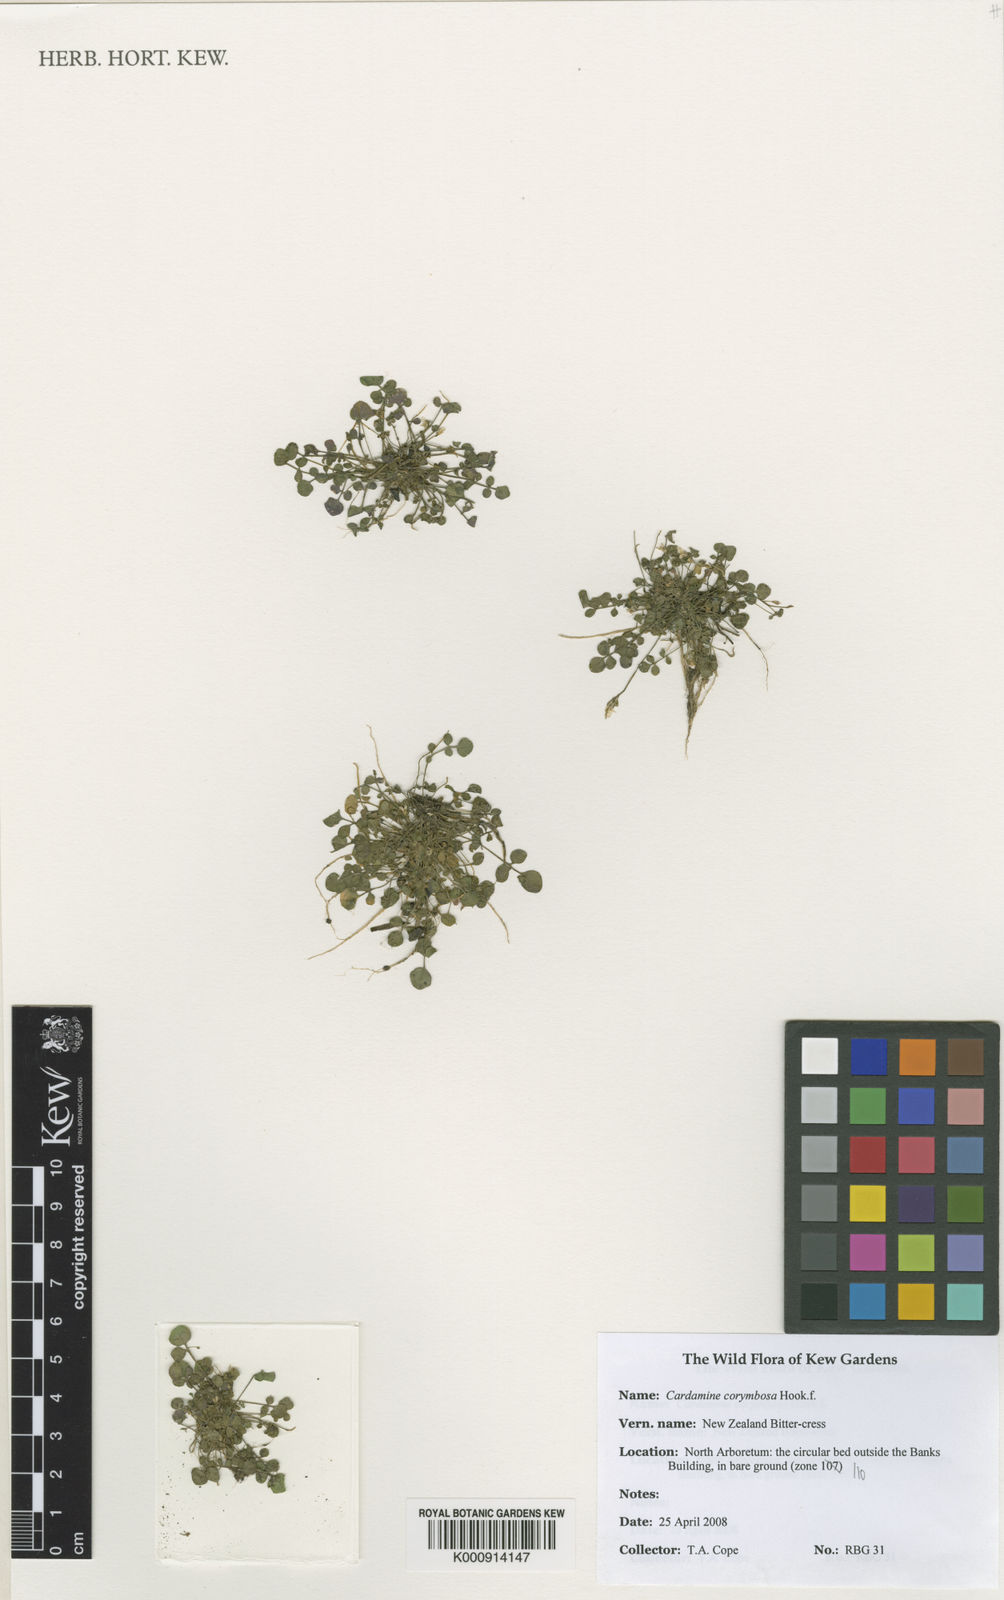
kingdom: Plantae
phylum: Tracheophyta
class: Magnoliopsida
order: Brassicales
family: Brassicaceae
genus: Cardamine
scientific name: Cardamine corymbosa
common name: New zealand bitter-cress
